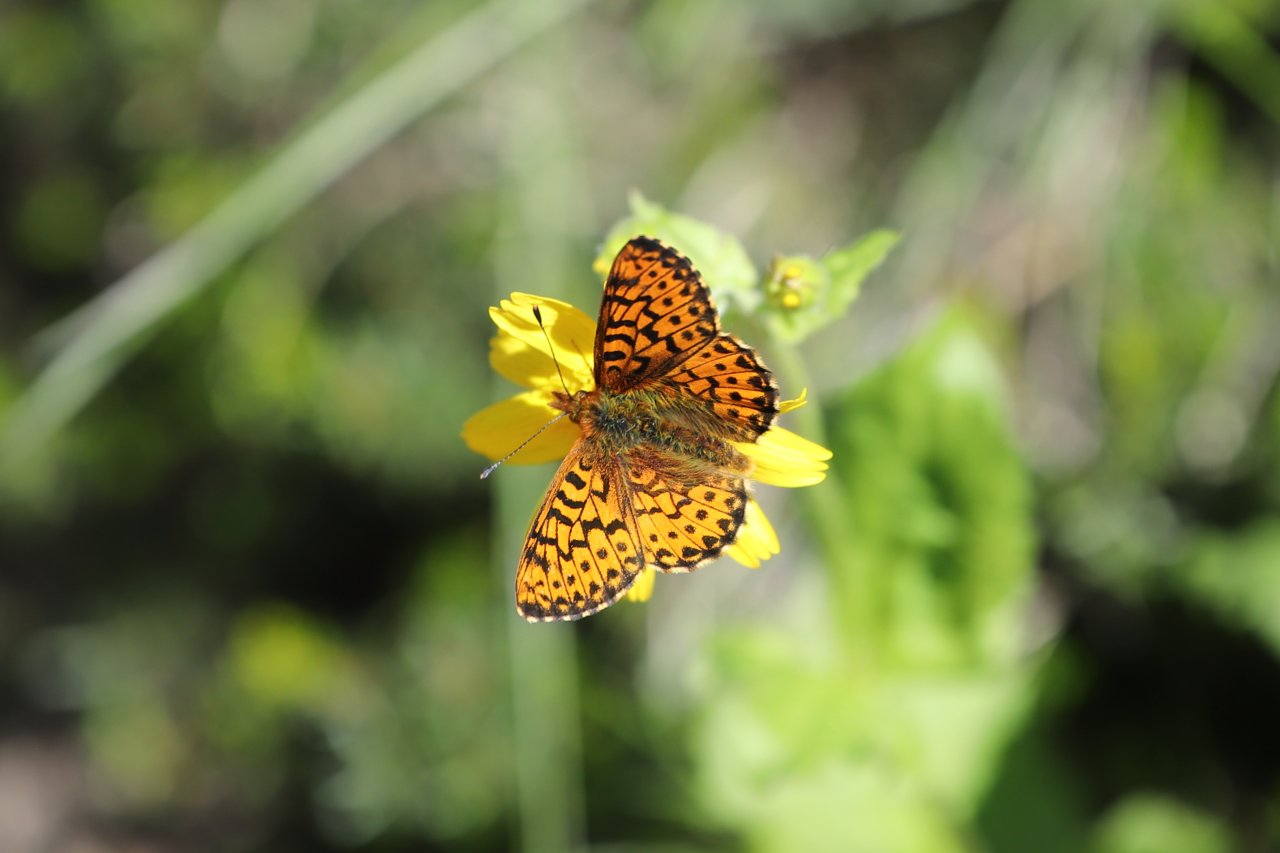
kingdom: Animalia
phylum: Arthropoda
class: Insecta
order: Lepidoptera
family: Nymphalidae
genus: Boloria
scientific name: Boloria chariclea
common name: Arctic Fritillary
